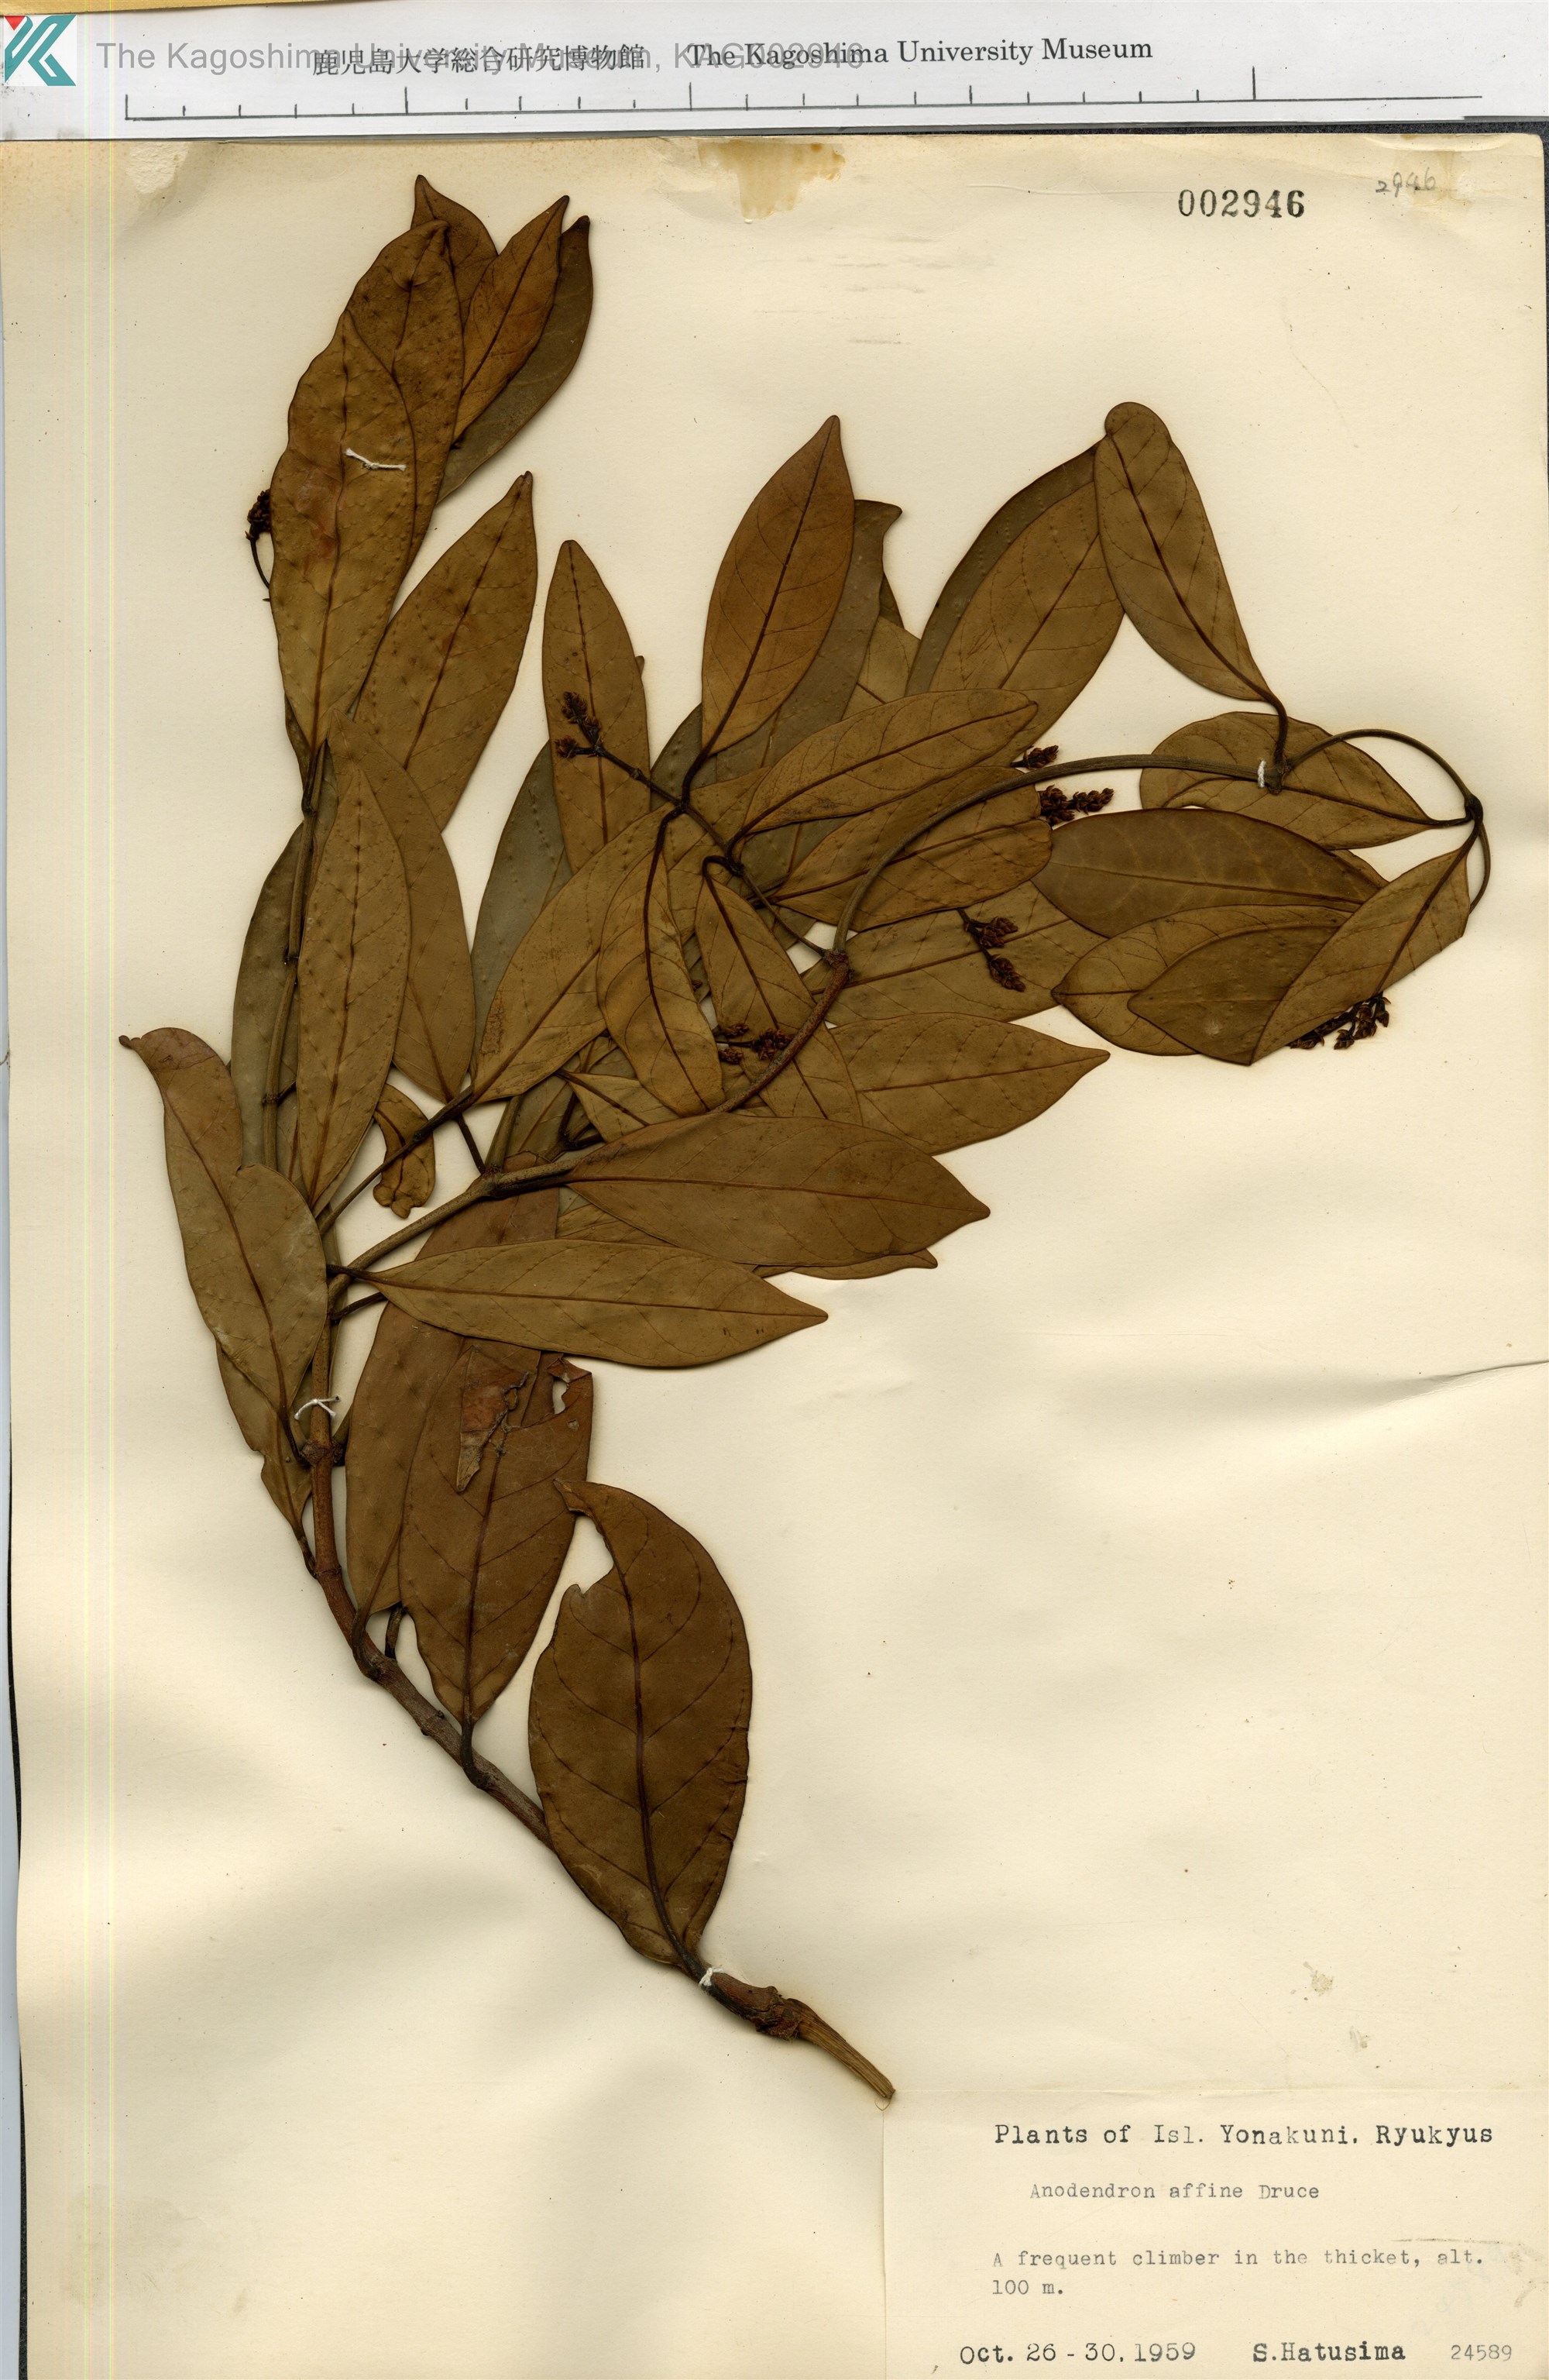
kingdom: Plantae
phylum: Tracheophyta
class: Magnoliopsida
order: Gentianales
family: Apocynaceae
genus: Anodendron
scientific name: Anodendron affine
